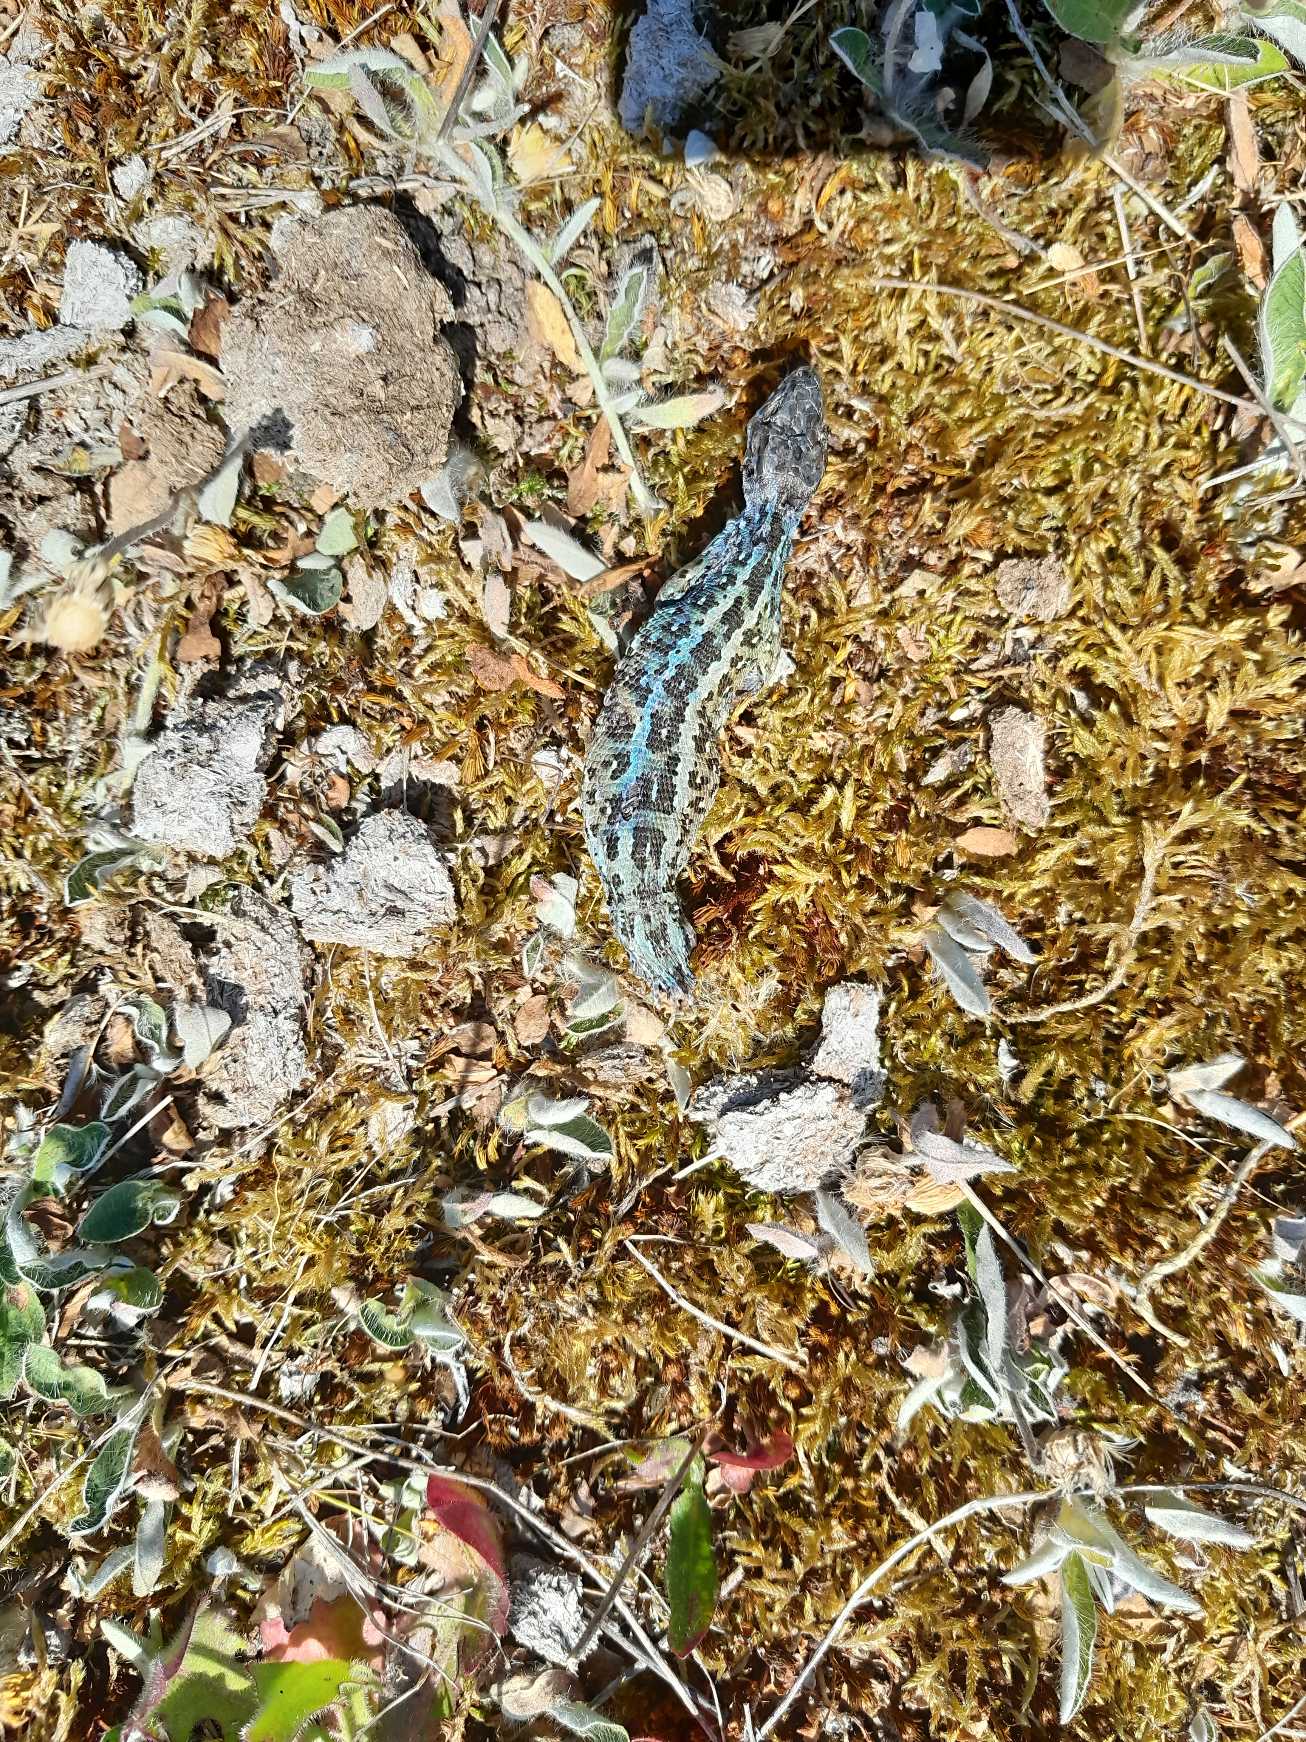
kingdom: Animalia
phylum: Chordata
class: Squamata
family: Lacertidae
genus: Lacerta
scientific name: Lacerta agilis
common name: Markfirben
